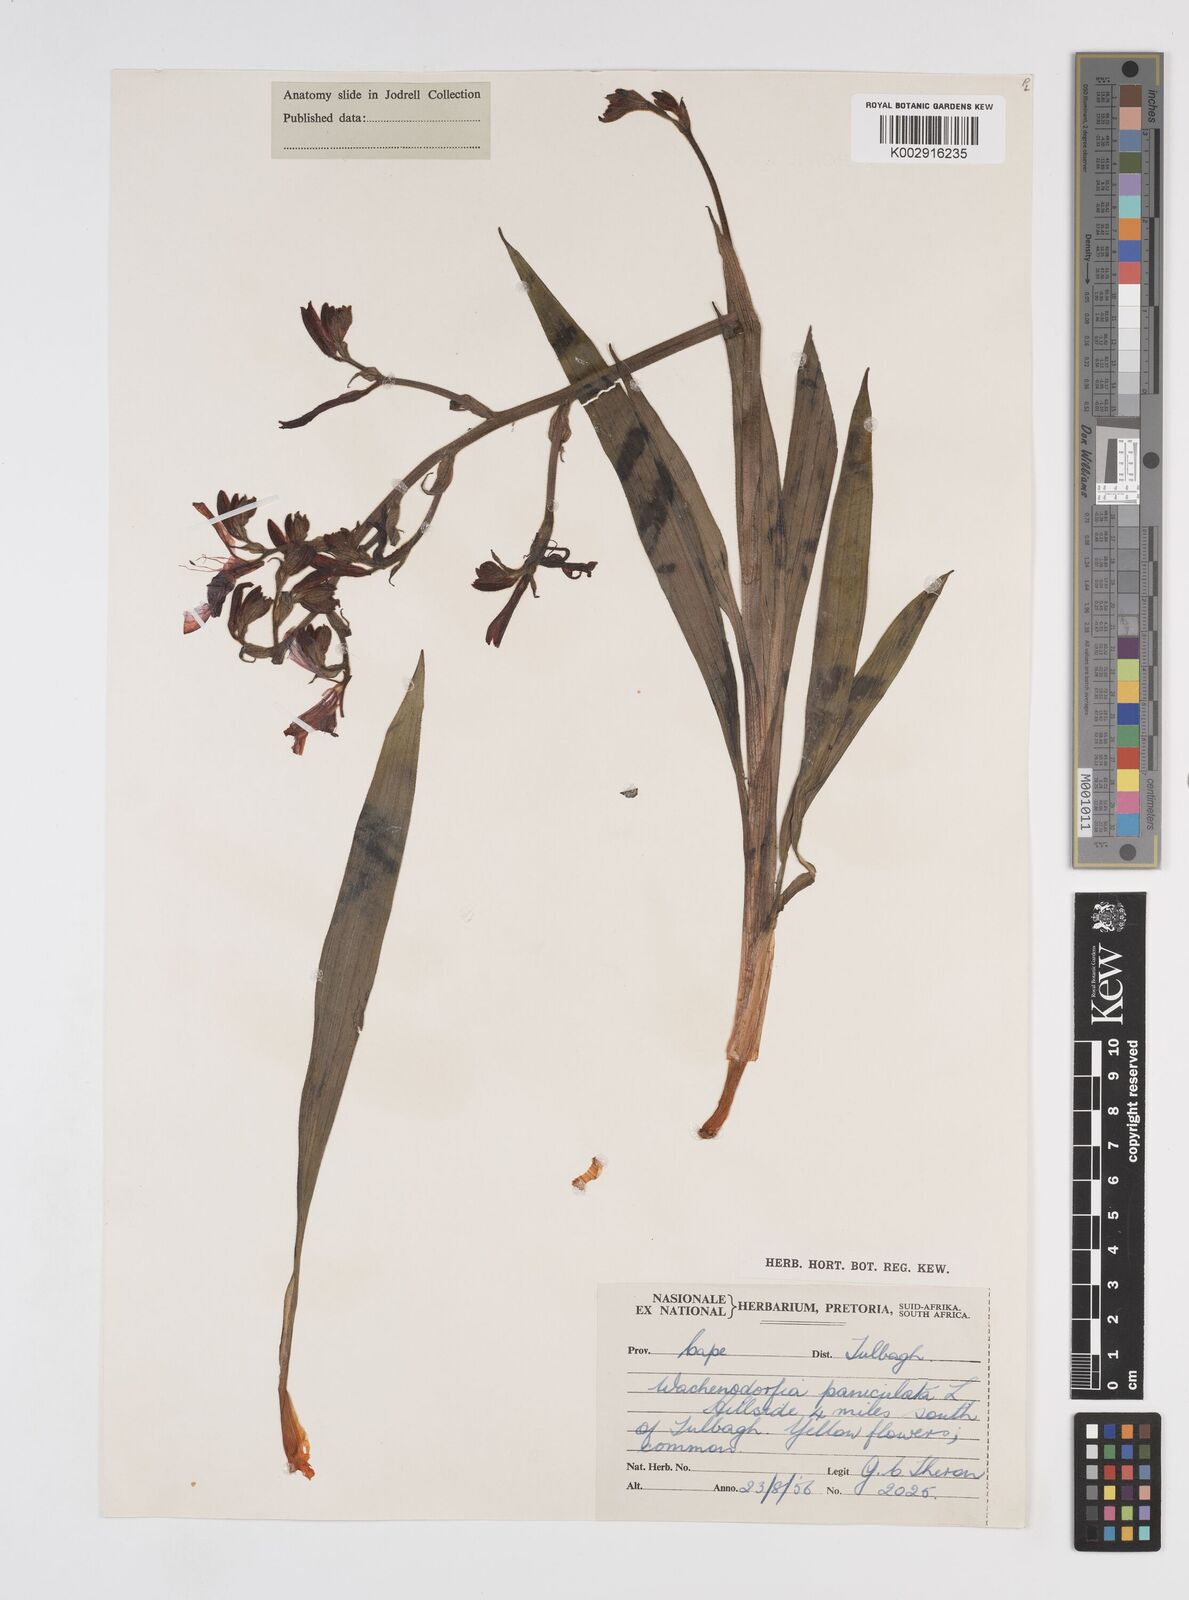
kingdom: Plantae
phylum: Tracheophyta
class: Liliopsida
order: Commelinales
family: Haemodoraceae
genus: Wachendorfia
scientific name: Wachendorfia paniculata
